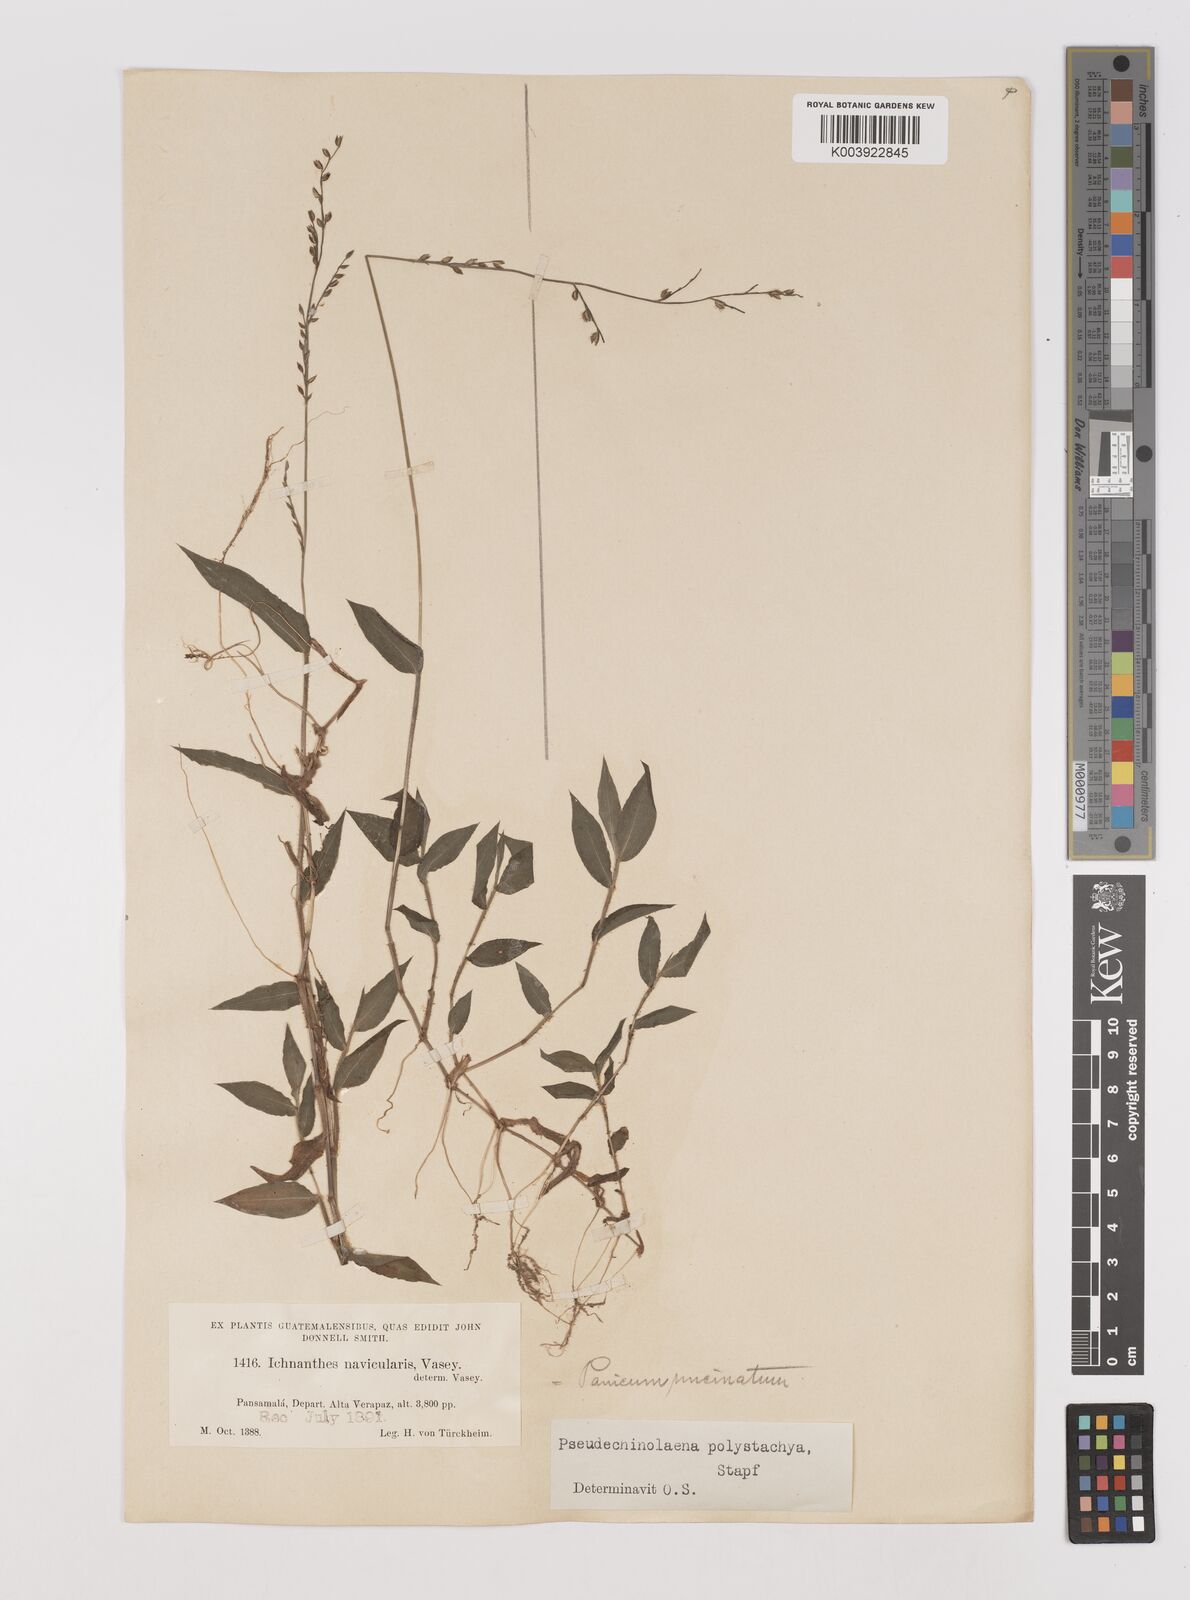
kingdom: Plantae
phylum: Tracheophyta
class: Liliopsida
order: Poales
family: Poaceae
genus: Pseudechinolaena
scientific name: Pseudechinolaena polystachya
